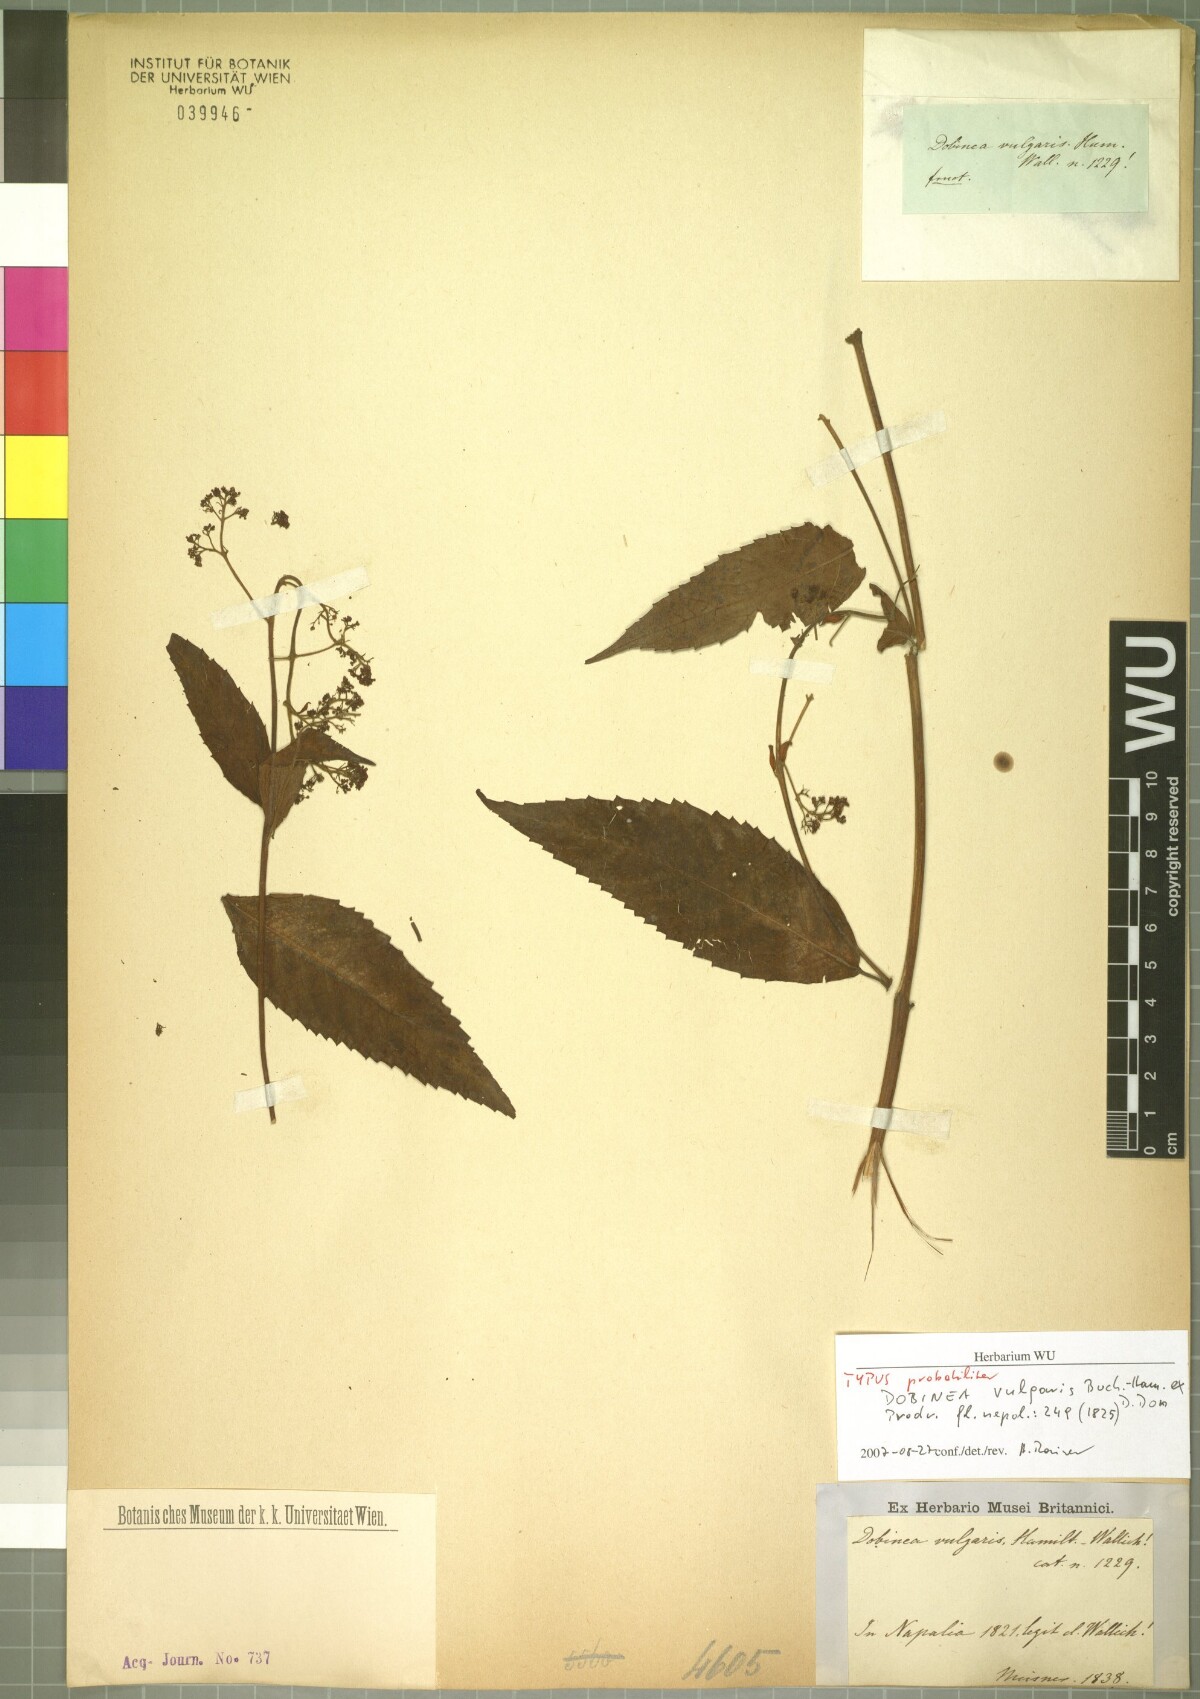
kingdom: Plantae
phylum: Tracheophyta
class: Magnoliopsida
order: Sapindales
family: Anacardiaceae
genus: Dobinea
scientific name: Dobinea vulgaris
